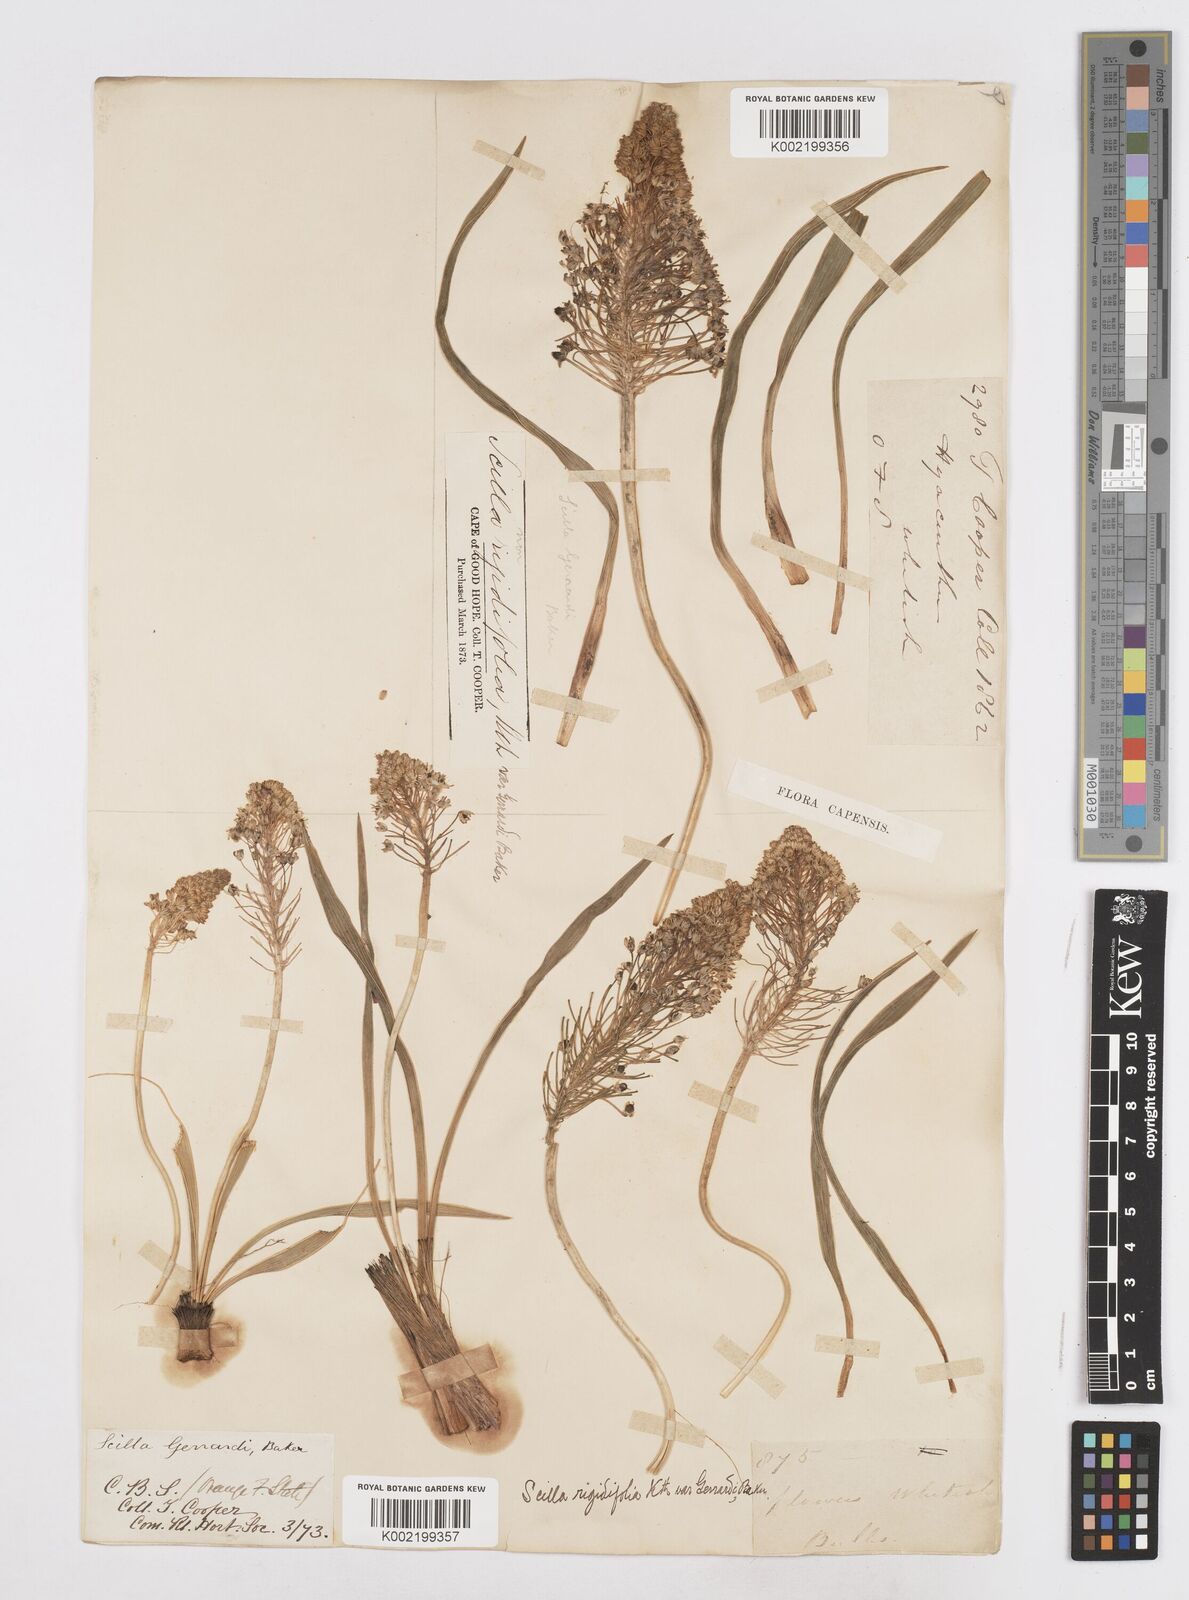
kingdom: Plantae
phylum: Tracheophyta
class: Liliopsida
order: Asparagales
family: Asparagaceae
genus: Schizocarphus
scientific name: Schizocarphus nervosus
